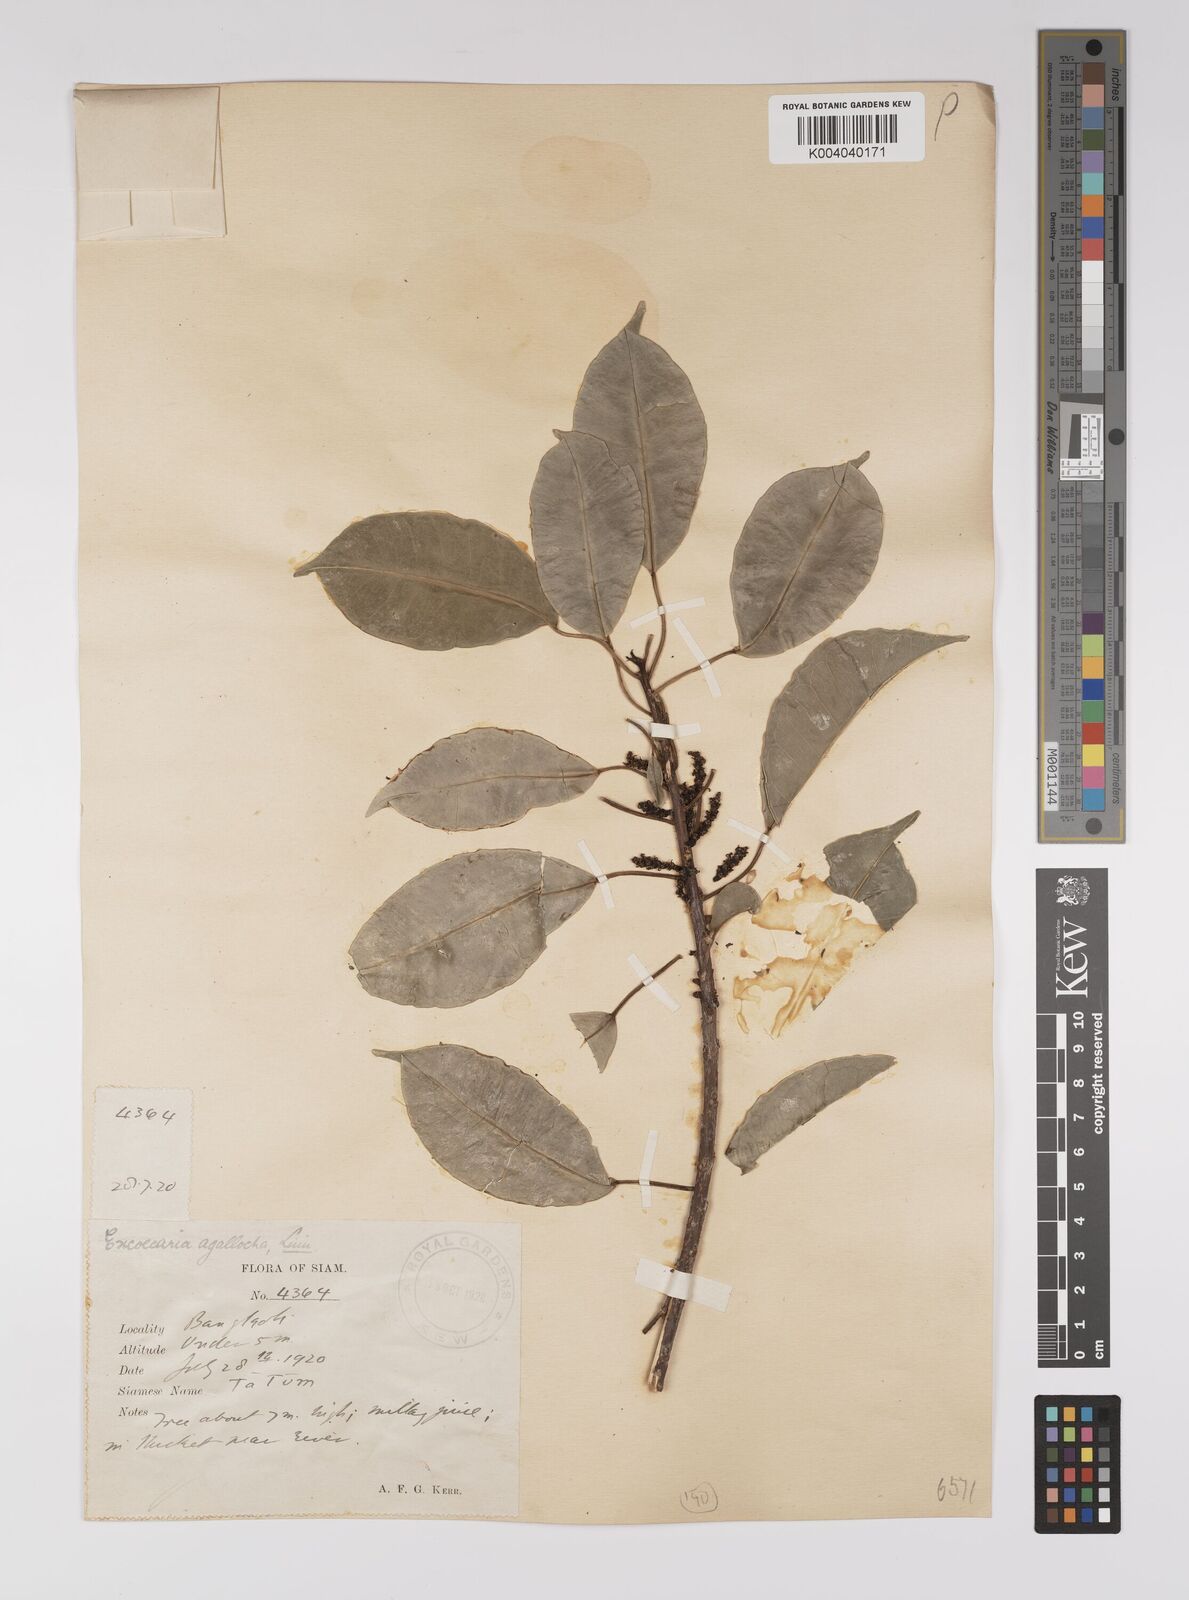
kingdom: Plantae
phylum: Tracheophyta
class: Magnoliopsida
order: Malpighiales
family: Euphorbiaceae
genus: Excoecaria
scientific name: Excoecaria agallocha
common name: River poisontree
